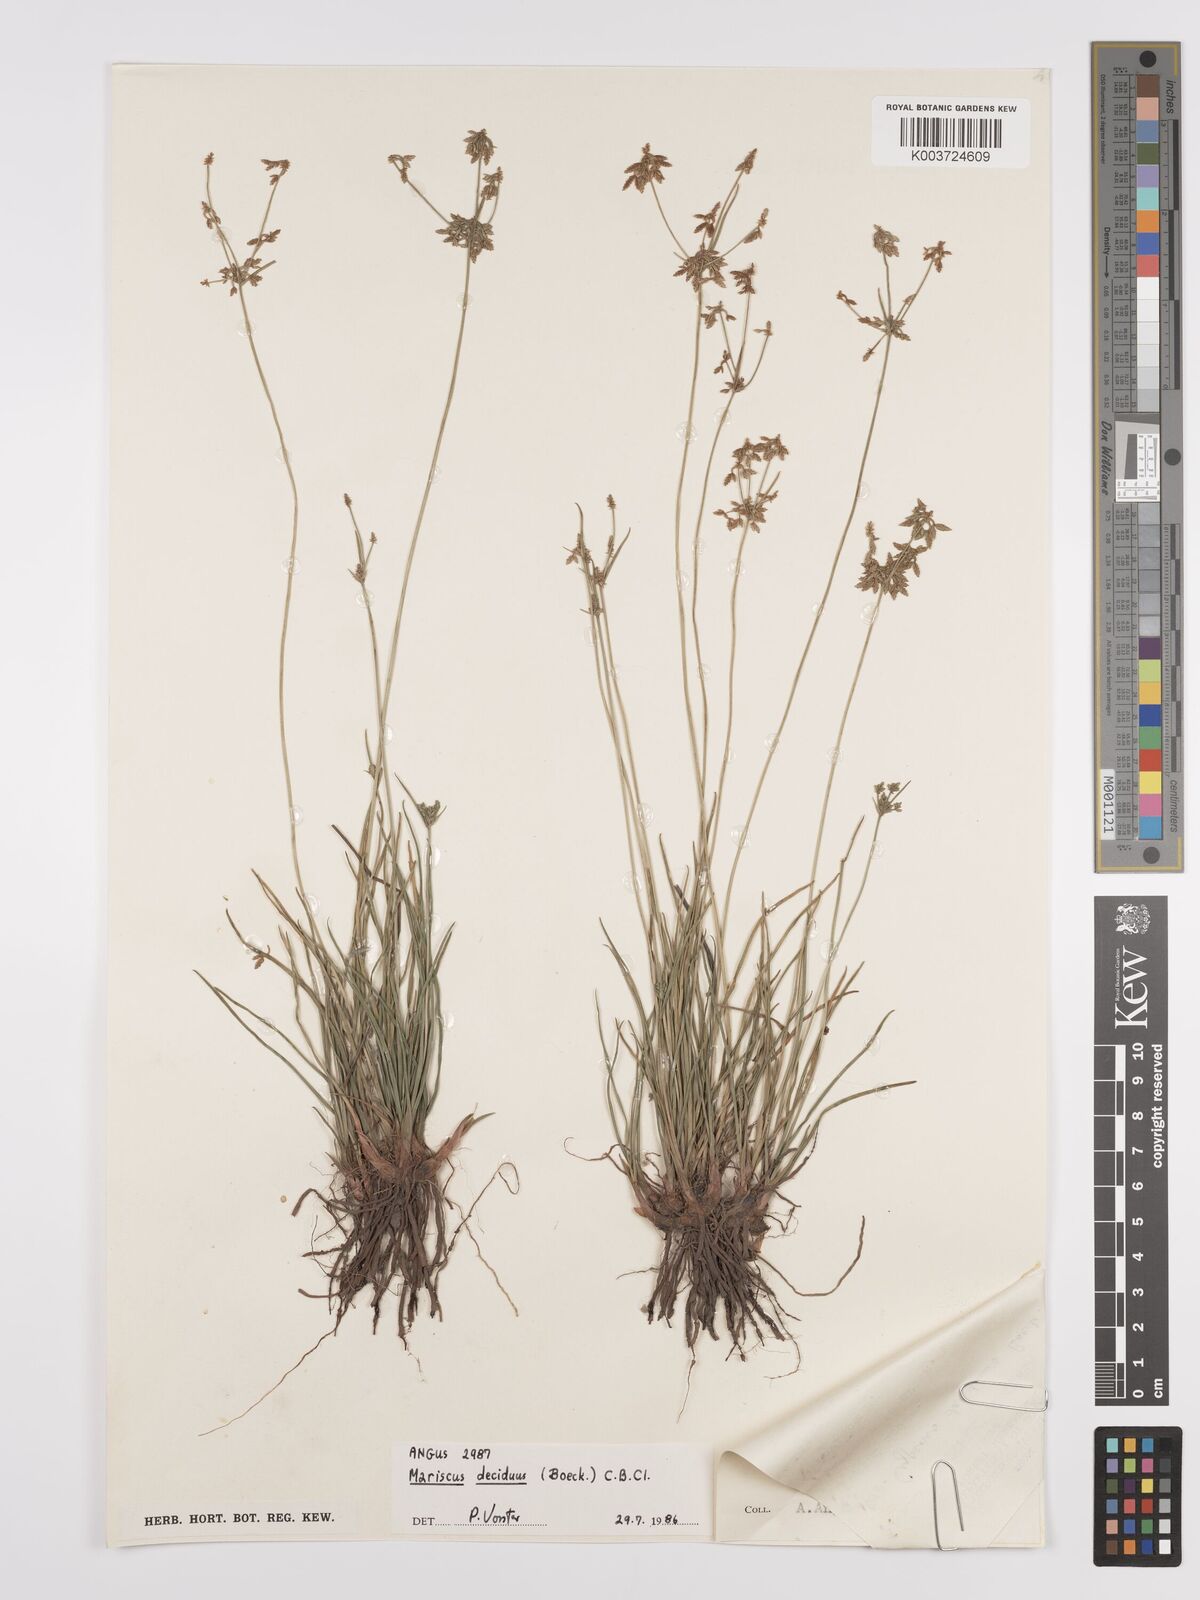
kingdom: Plantae
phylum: Tracheophyta
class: Liliopsida
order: Poales
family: Cyperaceae
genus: Cyperus
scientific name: Cyperus deciduus
